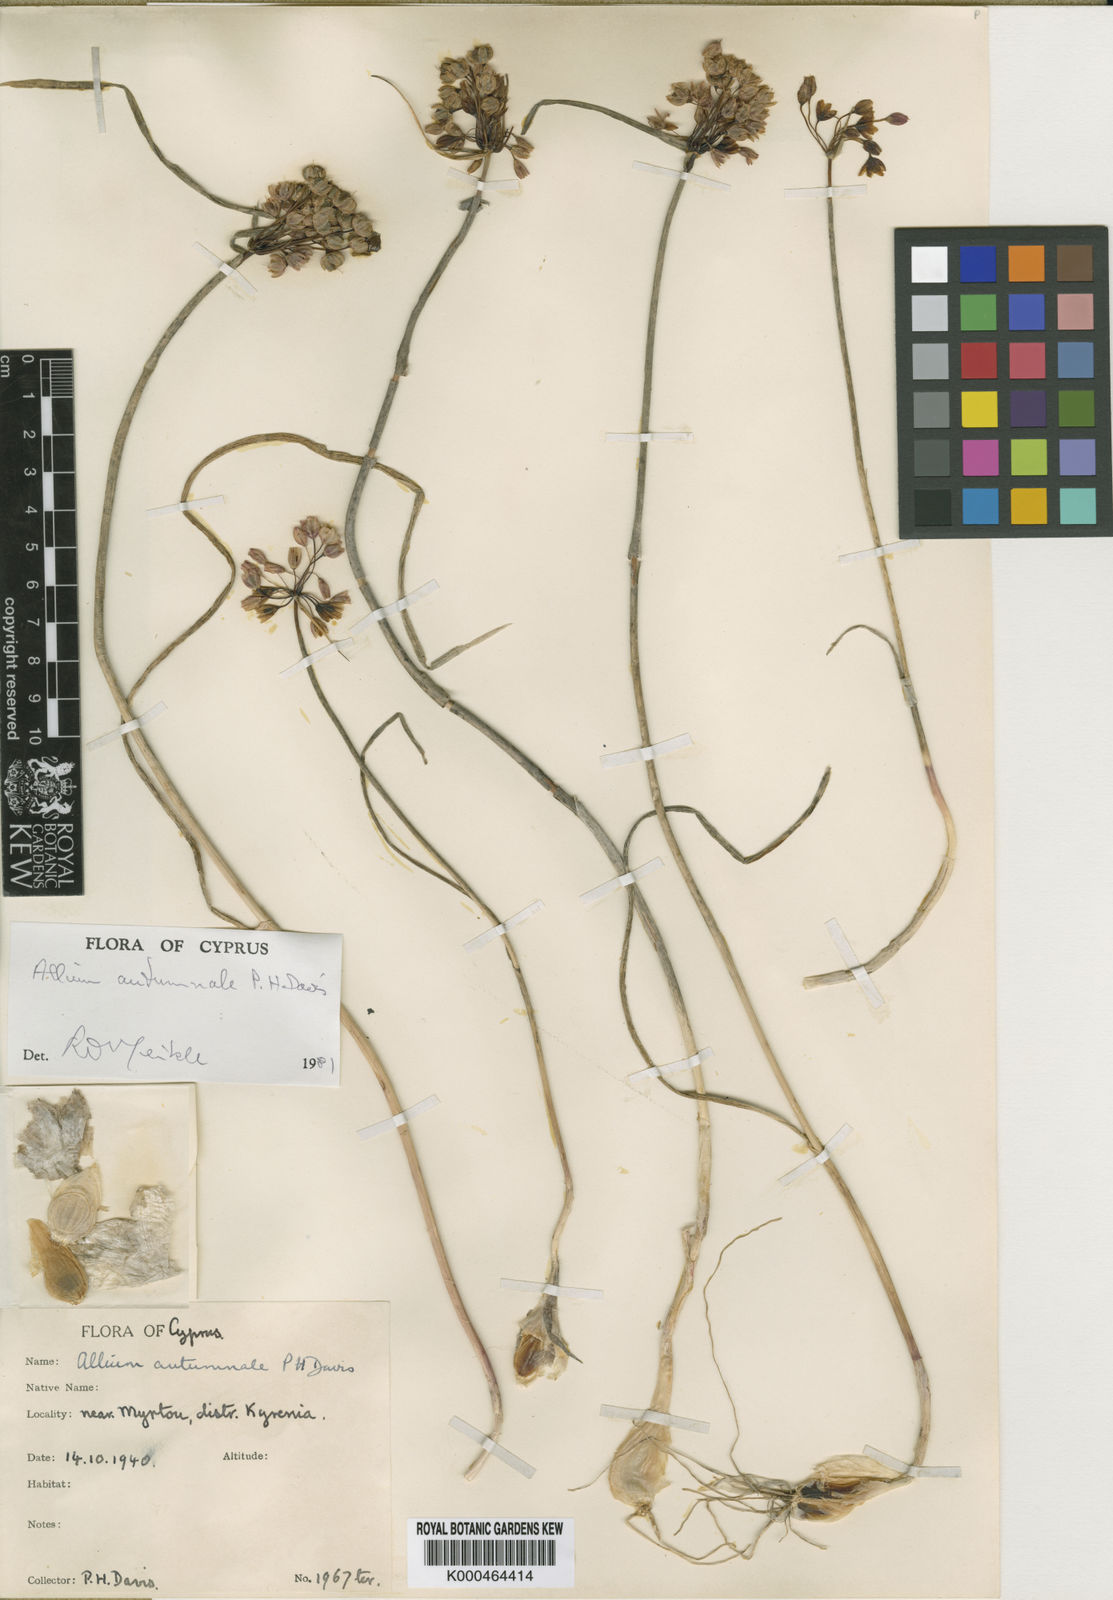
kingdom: Plantae
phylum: Tracheophyta
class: Liliopsida
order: Asparagales
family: Amaryllidaceae
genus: Allium
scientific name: Allium autumnale
